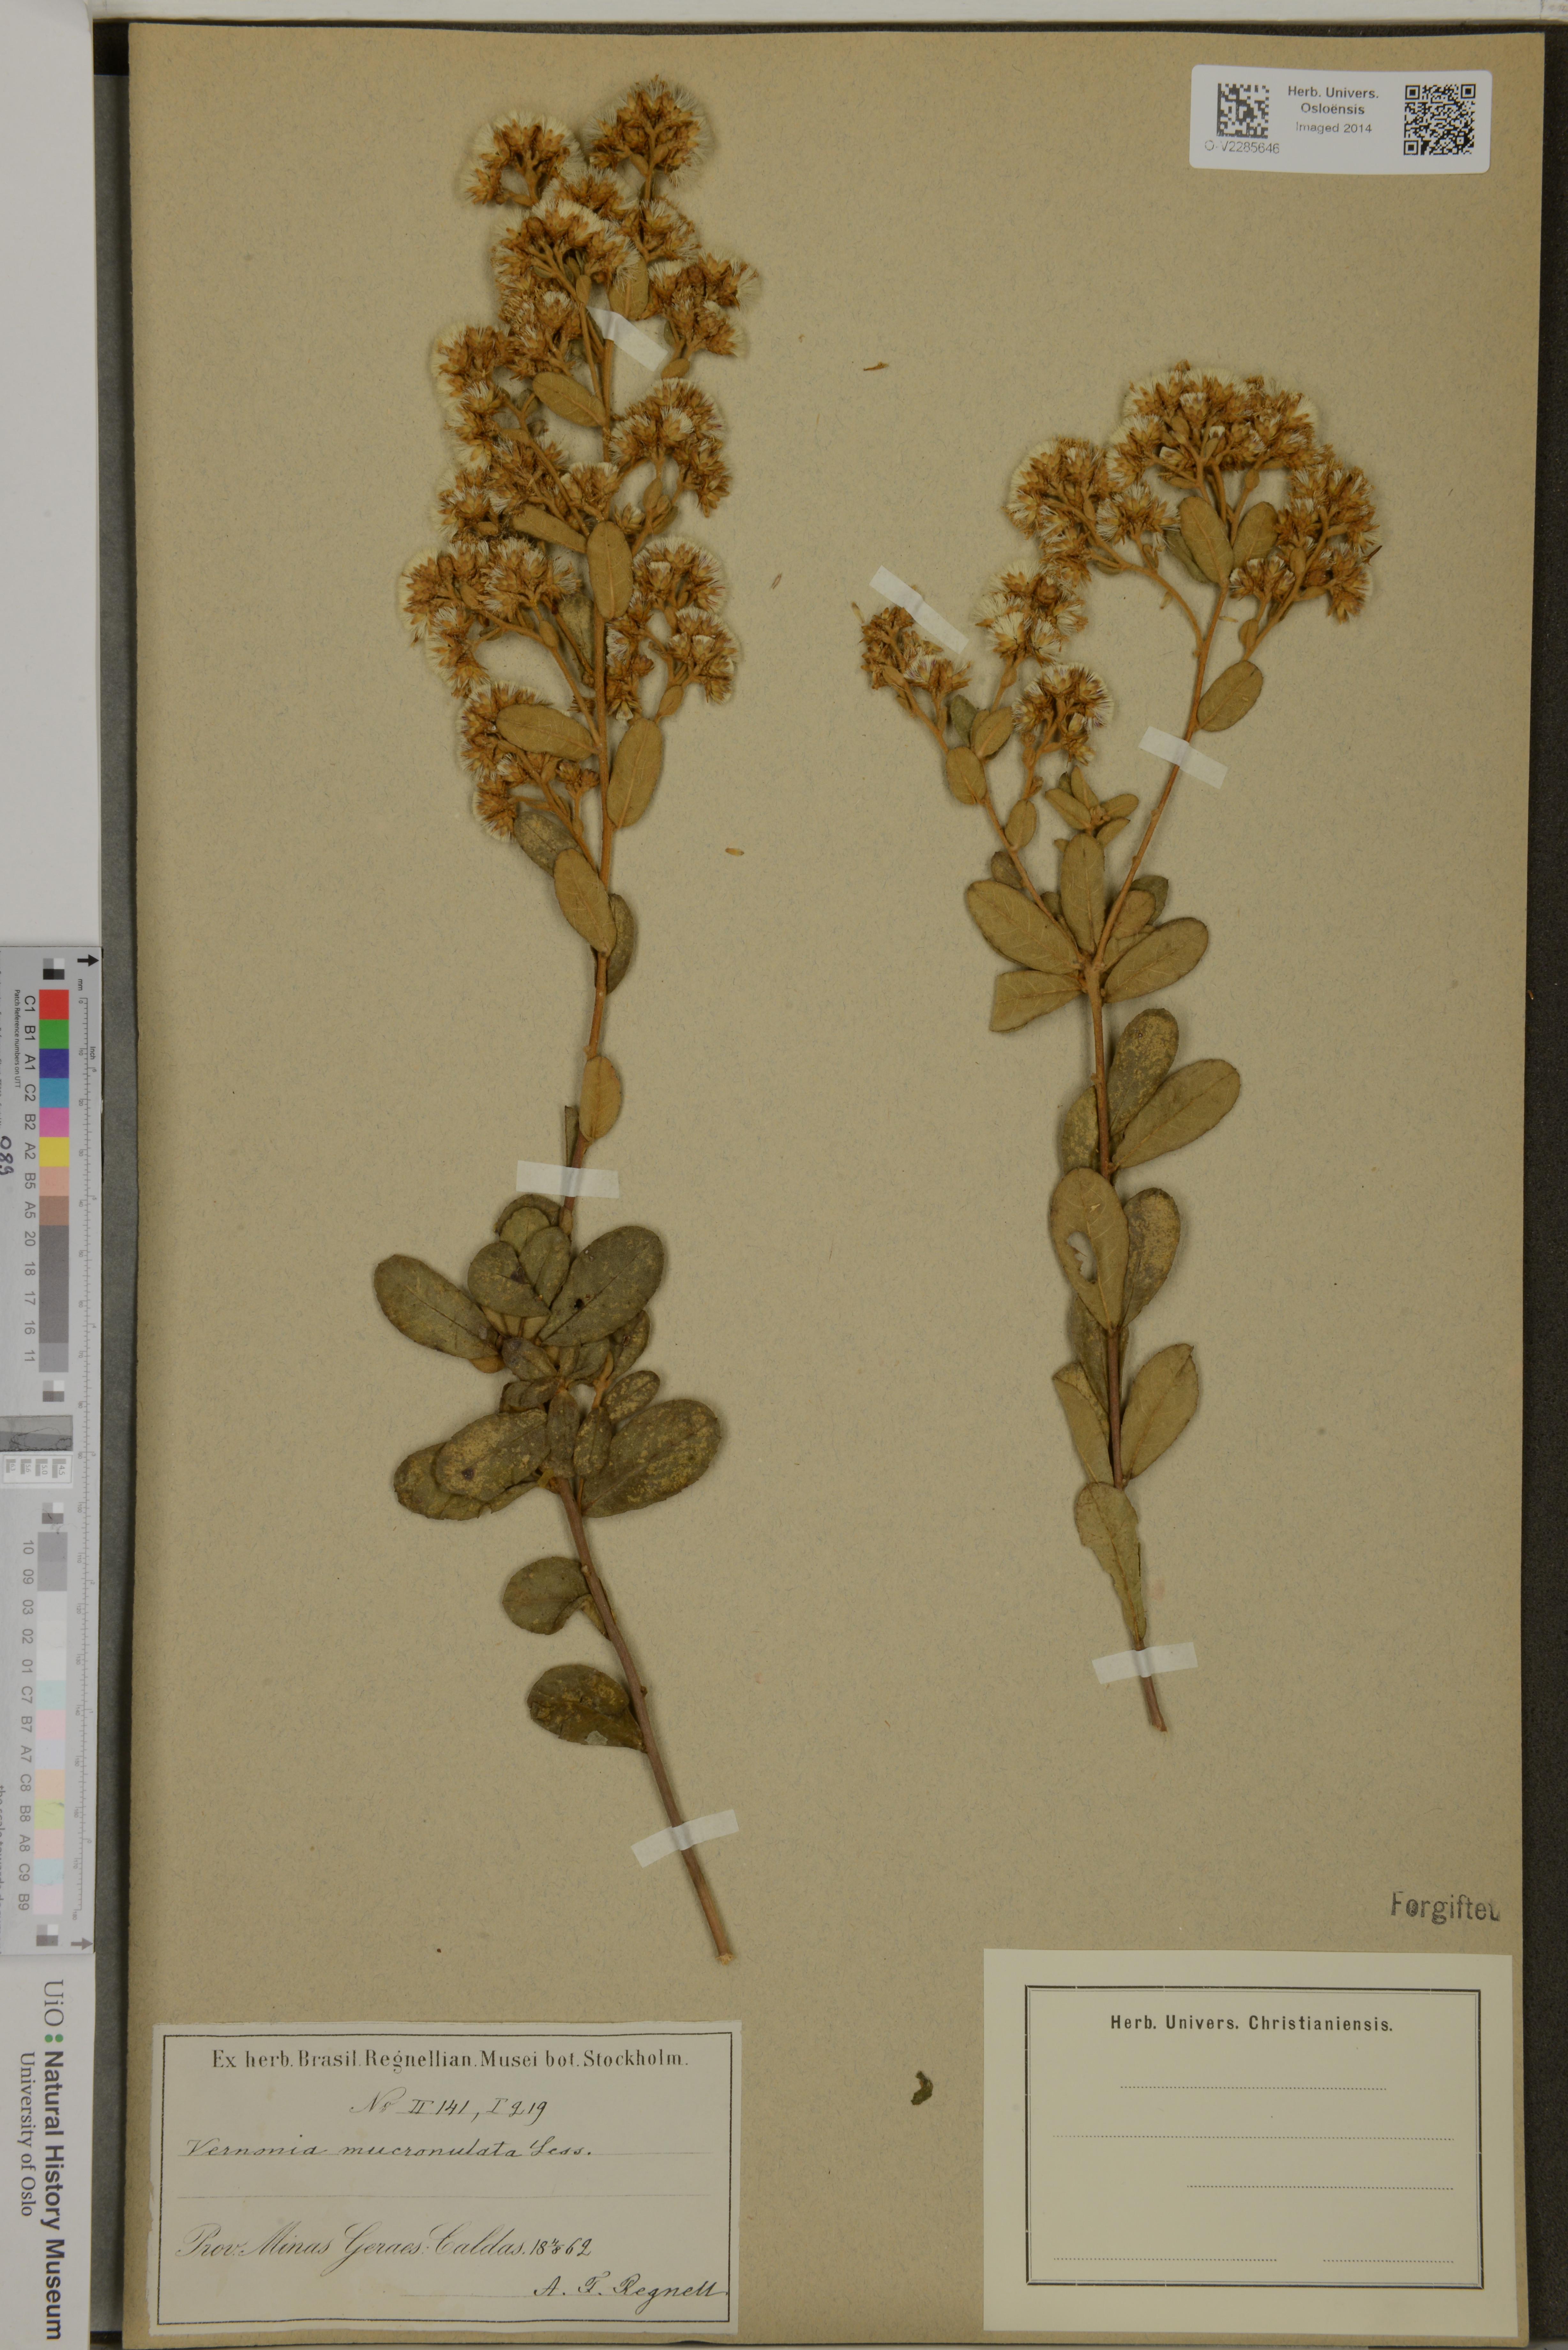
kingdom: Plantae
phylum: Tracheophyta
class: Magnoliopsida
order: Asterales
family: Asteraceae
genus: Vernonanthura
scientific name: Vernonanthura mucronulata
